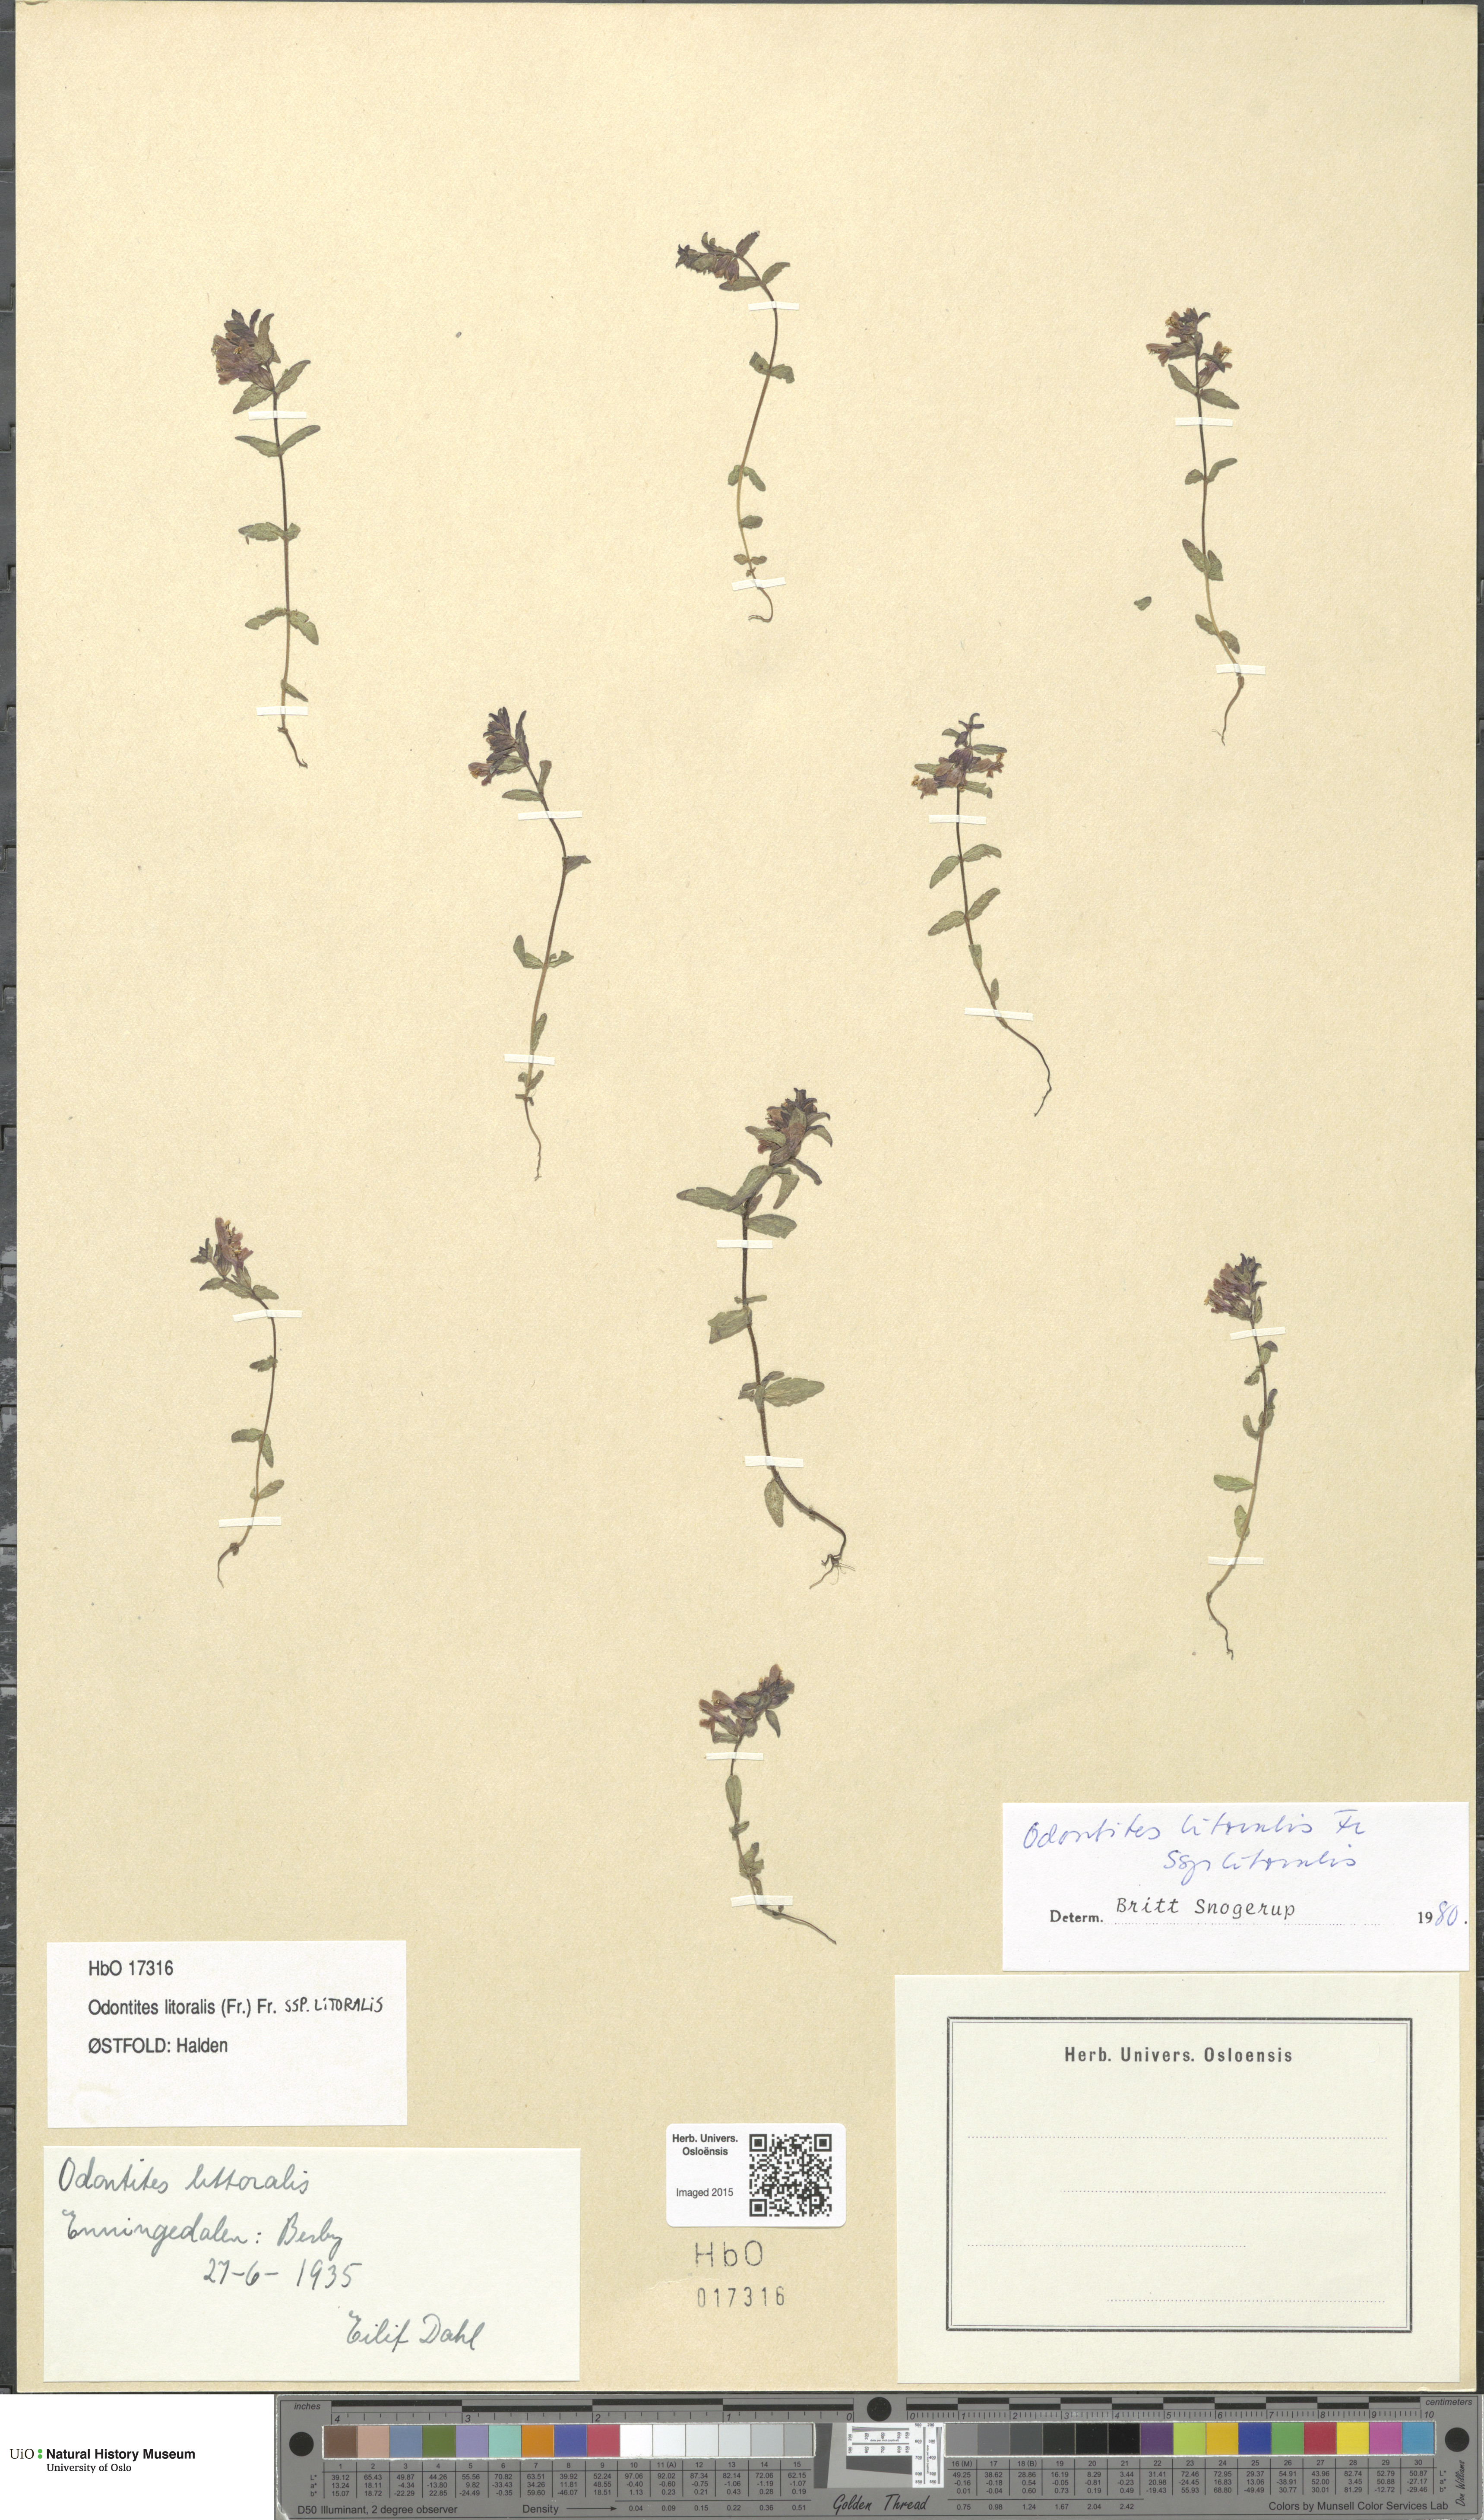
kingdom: Plantae
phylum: Tracheophyta
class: Magnoliopsida
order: Lamiales
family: Orobanchaceae
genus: Odontites
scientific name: Odontites litoralis
